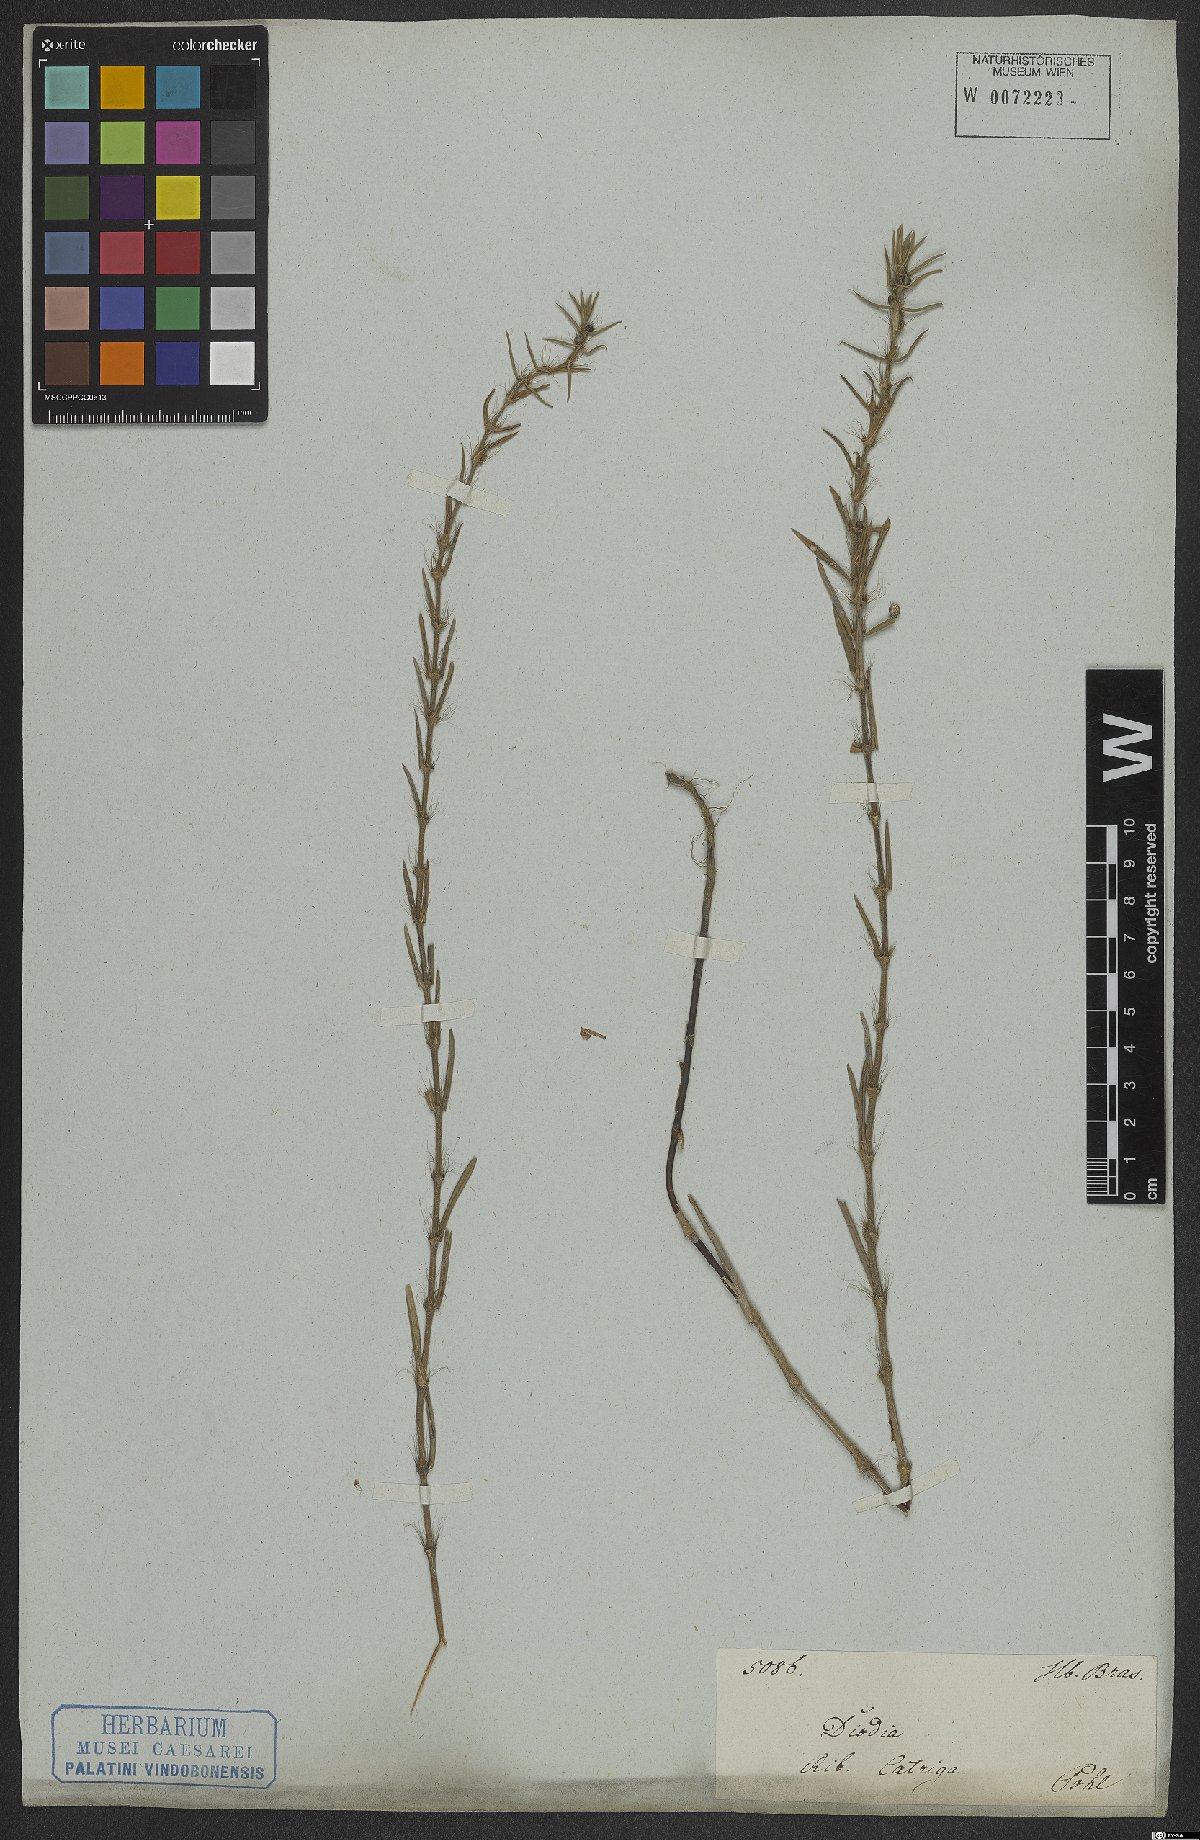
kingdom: Plantae
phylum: Tracheophyta
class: Magnoliopsida
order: Gentianales
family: Rubiaceae
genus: Hexasepalum
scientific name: Hexasepalum rosmarinifolium
